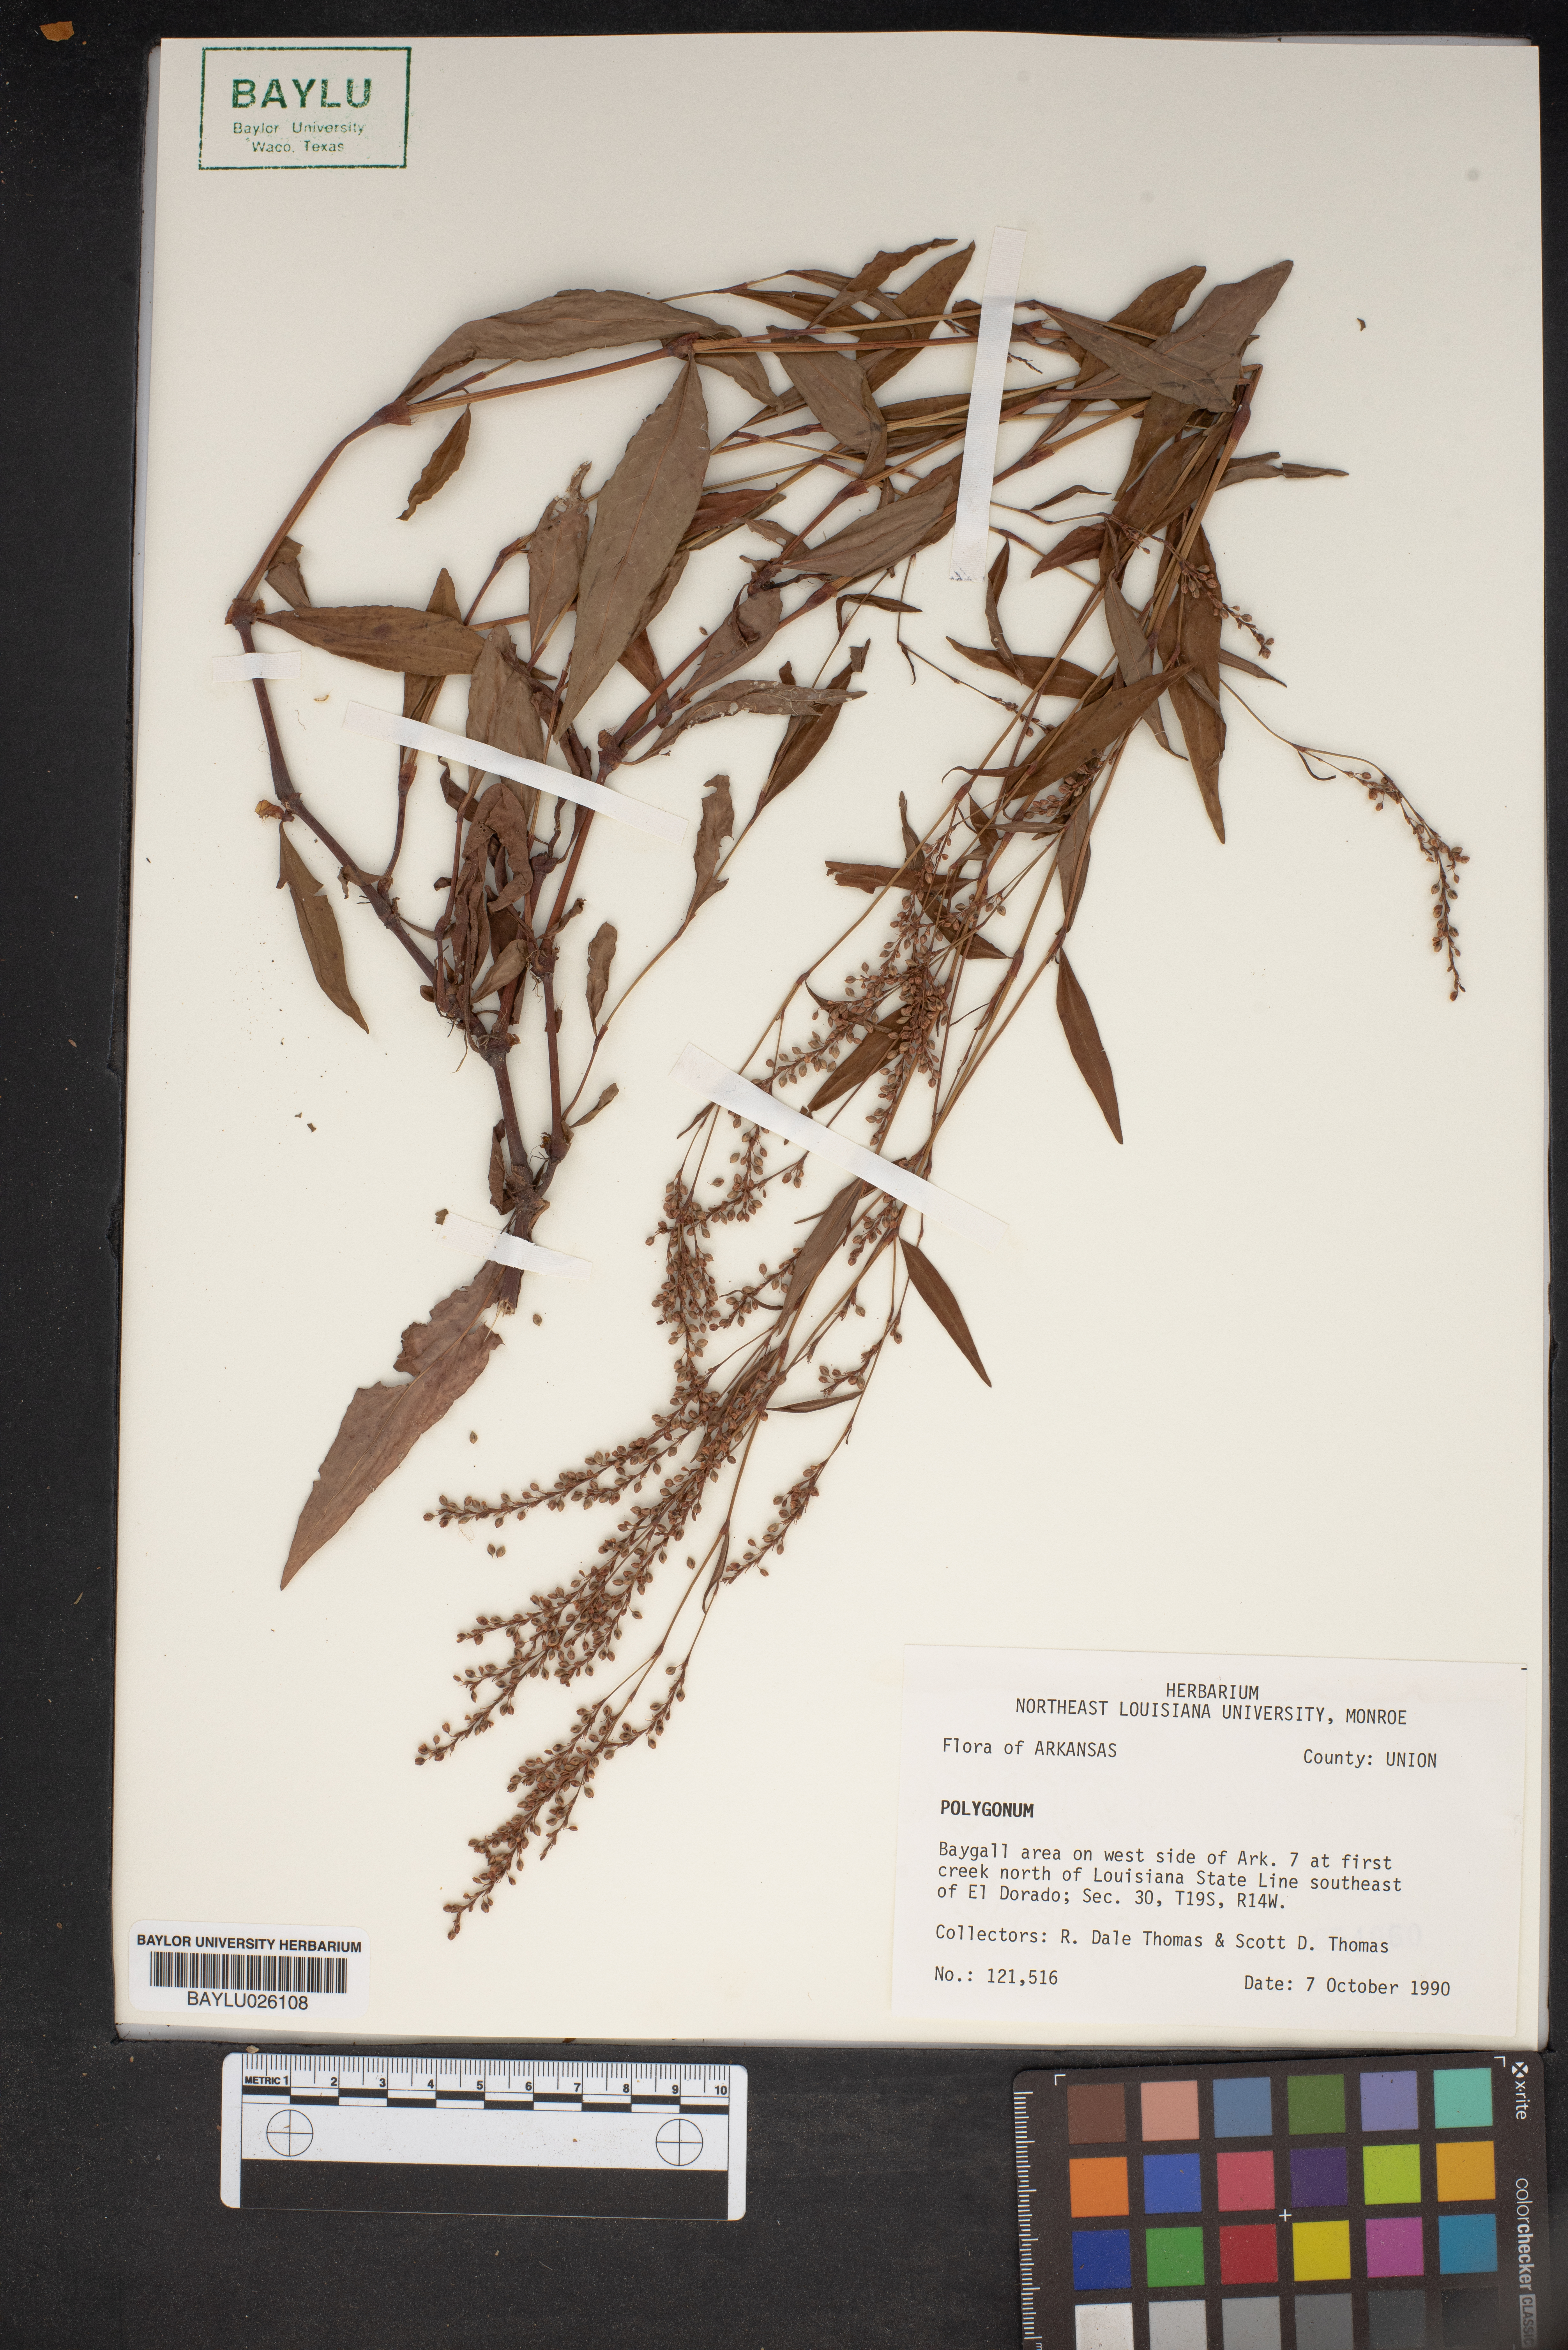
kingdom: Plantae
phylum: Tracheophyta
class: Magnoliopsida
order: Caryophyllales
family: Polygonaceae
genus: Polygonum
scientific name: Polygonum
